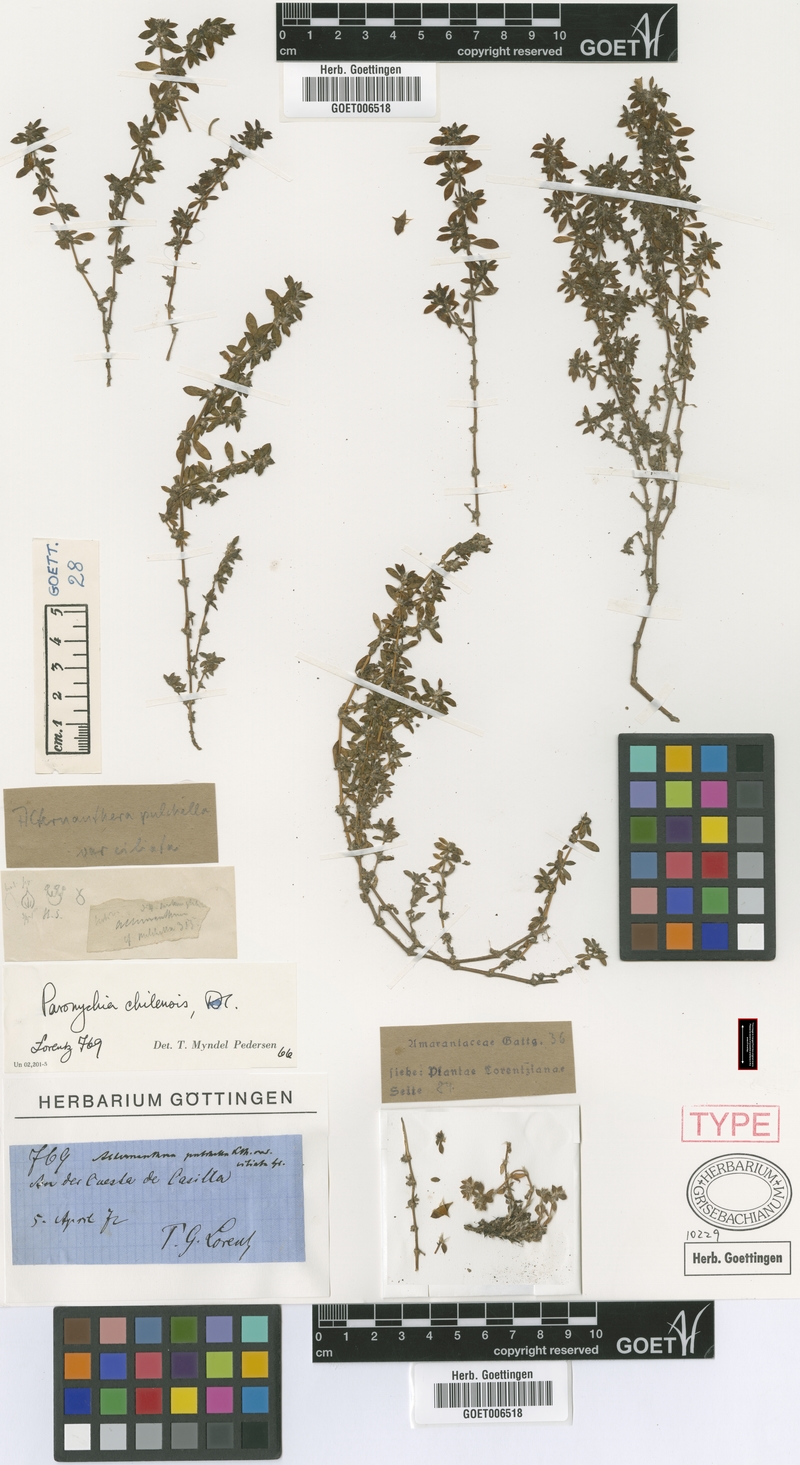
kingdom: Plantae
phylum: Tracheophyta
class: Magnoliopsida
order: Caryophyllales
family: Caryophyllaceae
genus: Paronychia
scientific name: Paronychia chilensis
